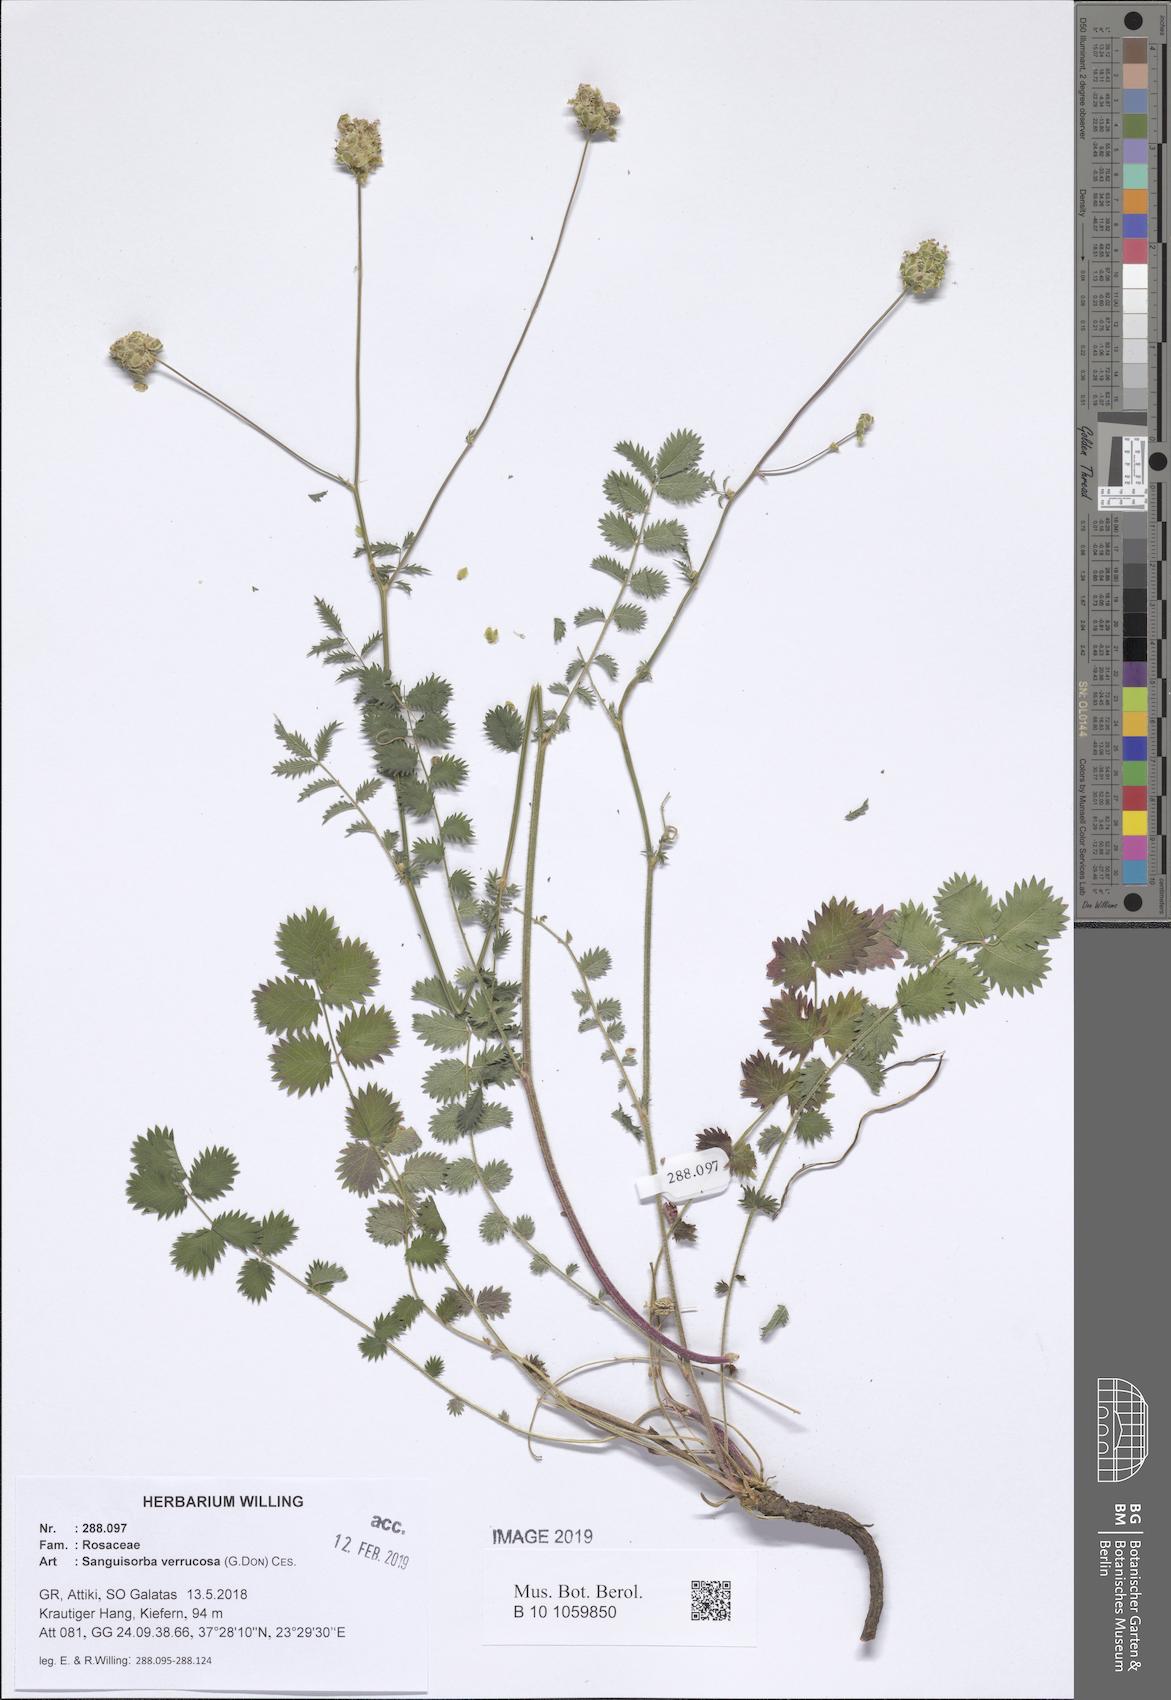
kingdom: Plantae
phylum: Tracheophyta
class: Magnoliopsida
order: Rosales
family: Rosaceae
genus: Poterium
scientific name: Poterium verrucosum
